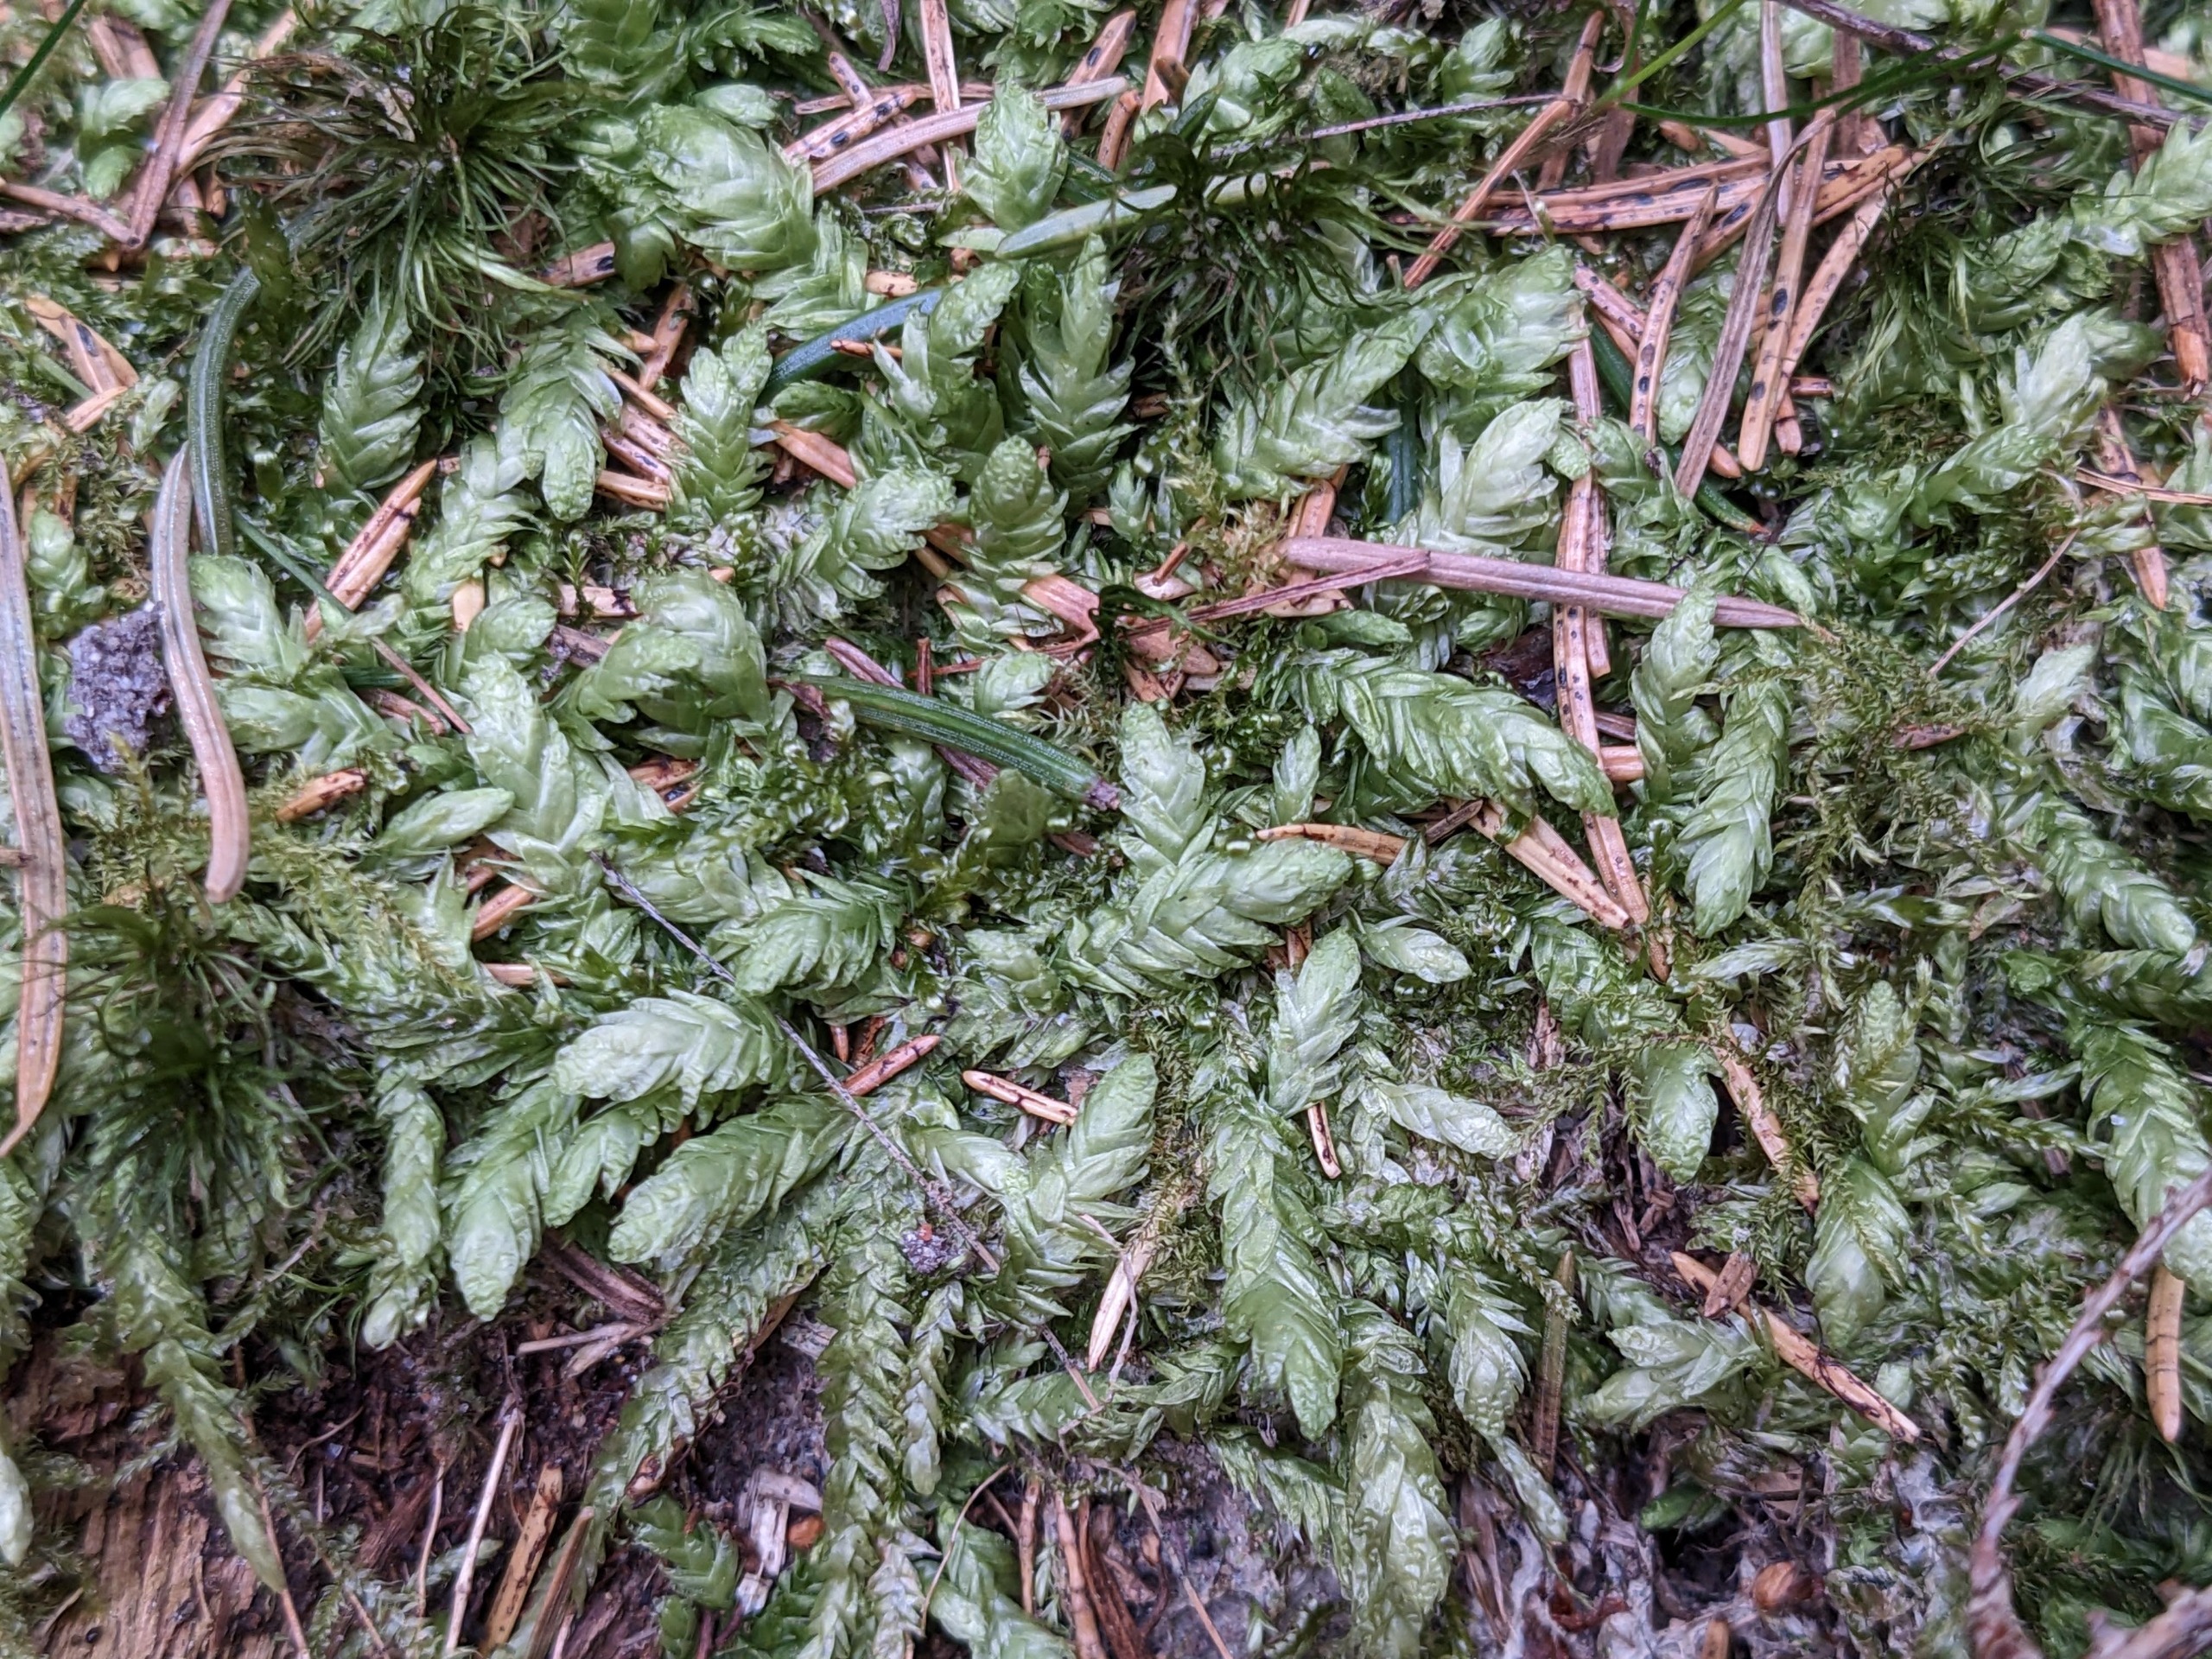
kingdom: Plantae
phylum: Bryophyta
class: Bryopsida
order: Hypnales
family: Plagiotheciaceae
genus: Plagiothecium
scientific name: Plagiothecium undulatum
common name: Bølget tæppemos
